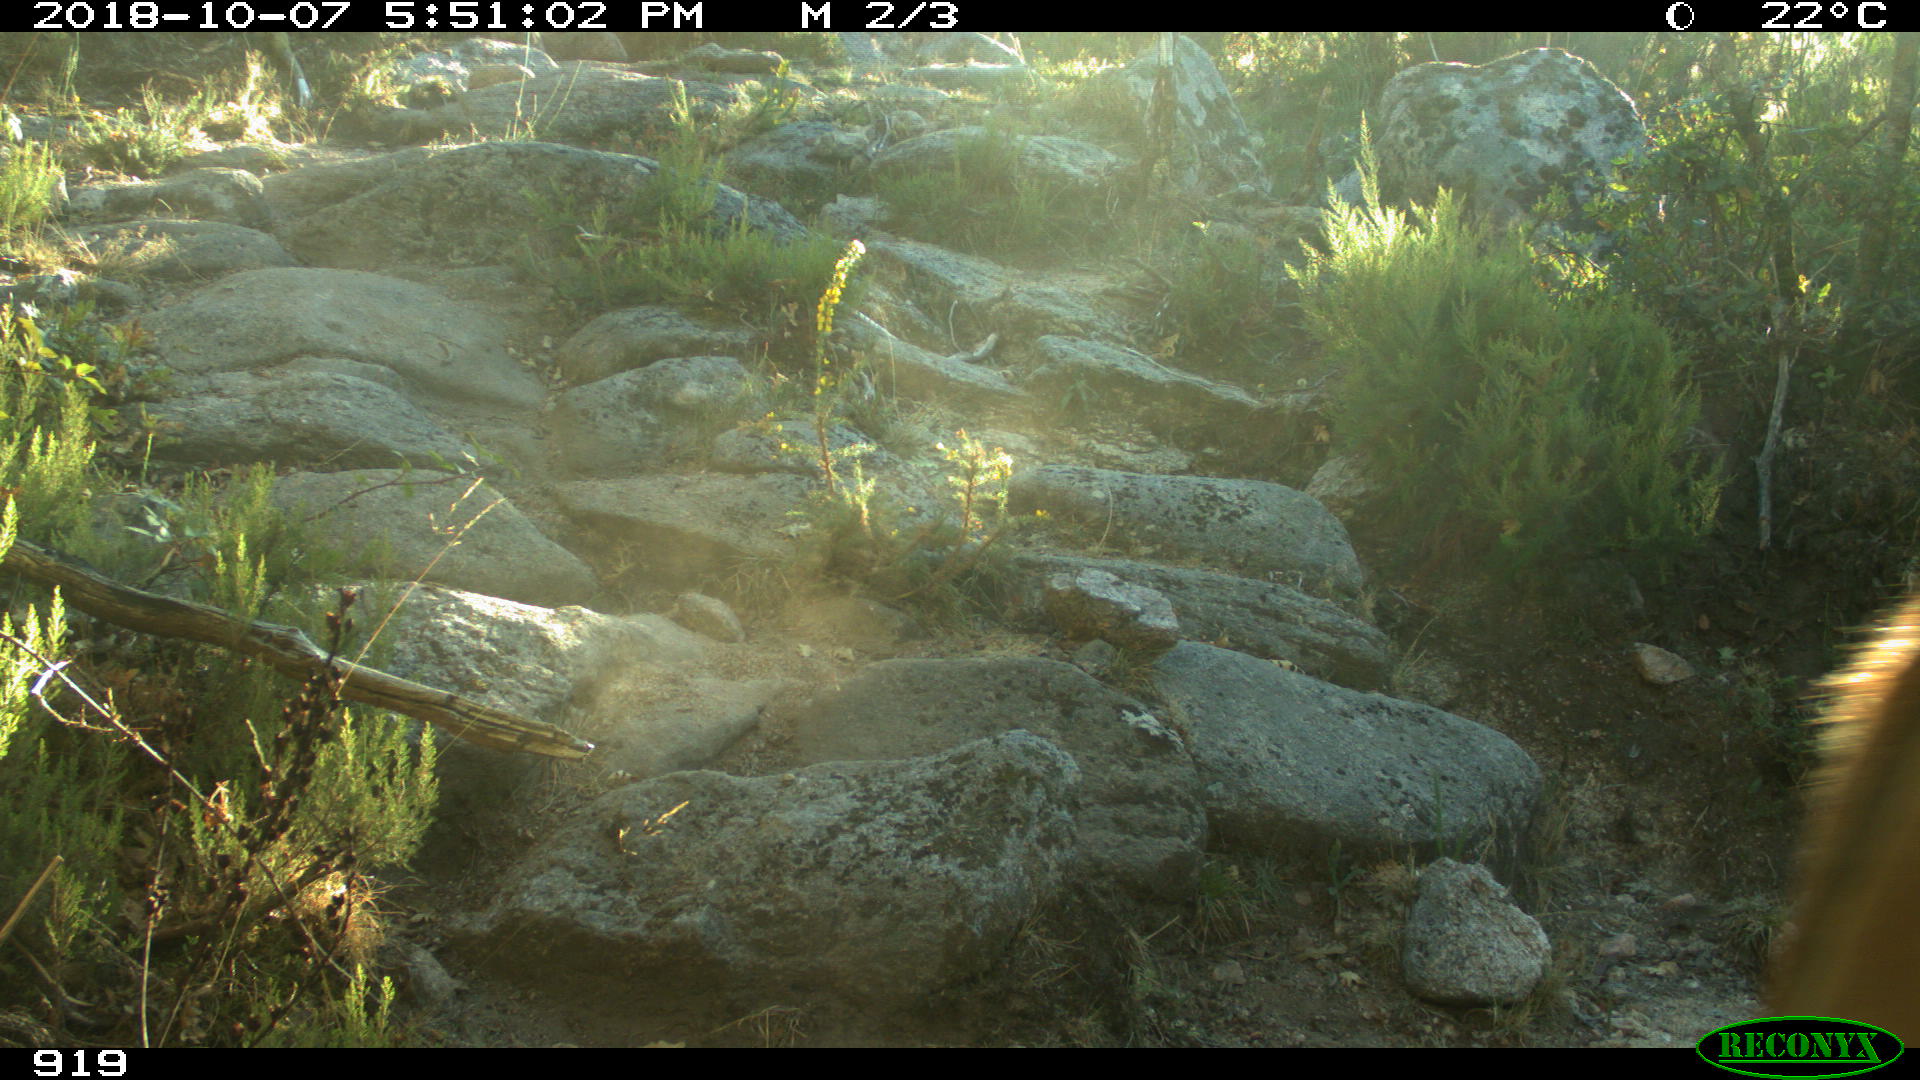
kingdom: Animalia
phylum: Chordata
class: Mammalia
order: Artiodactyla
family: Bovidae
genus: Bos
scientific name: Bos taurus
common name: Domesticated cattle
